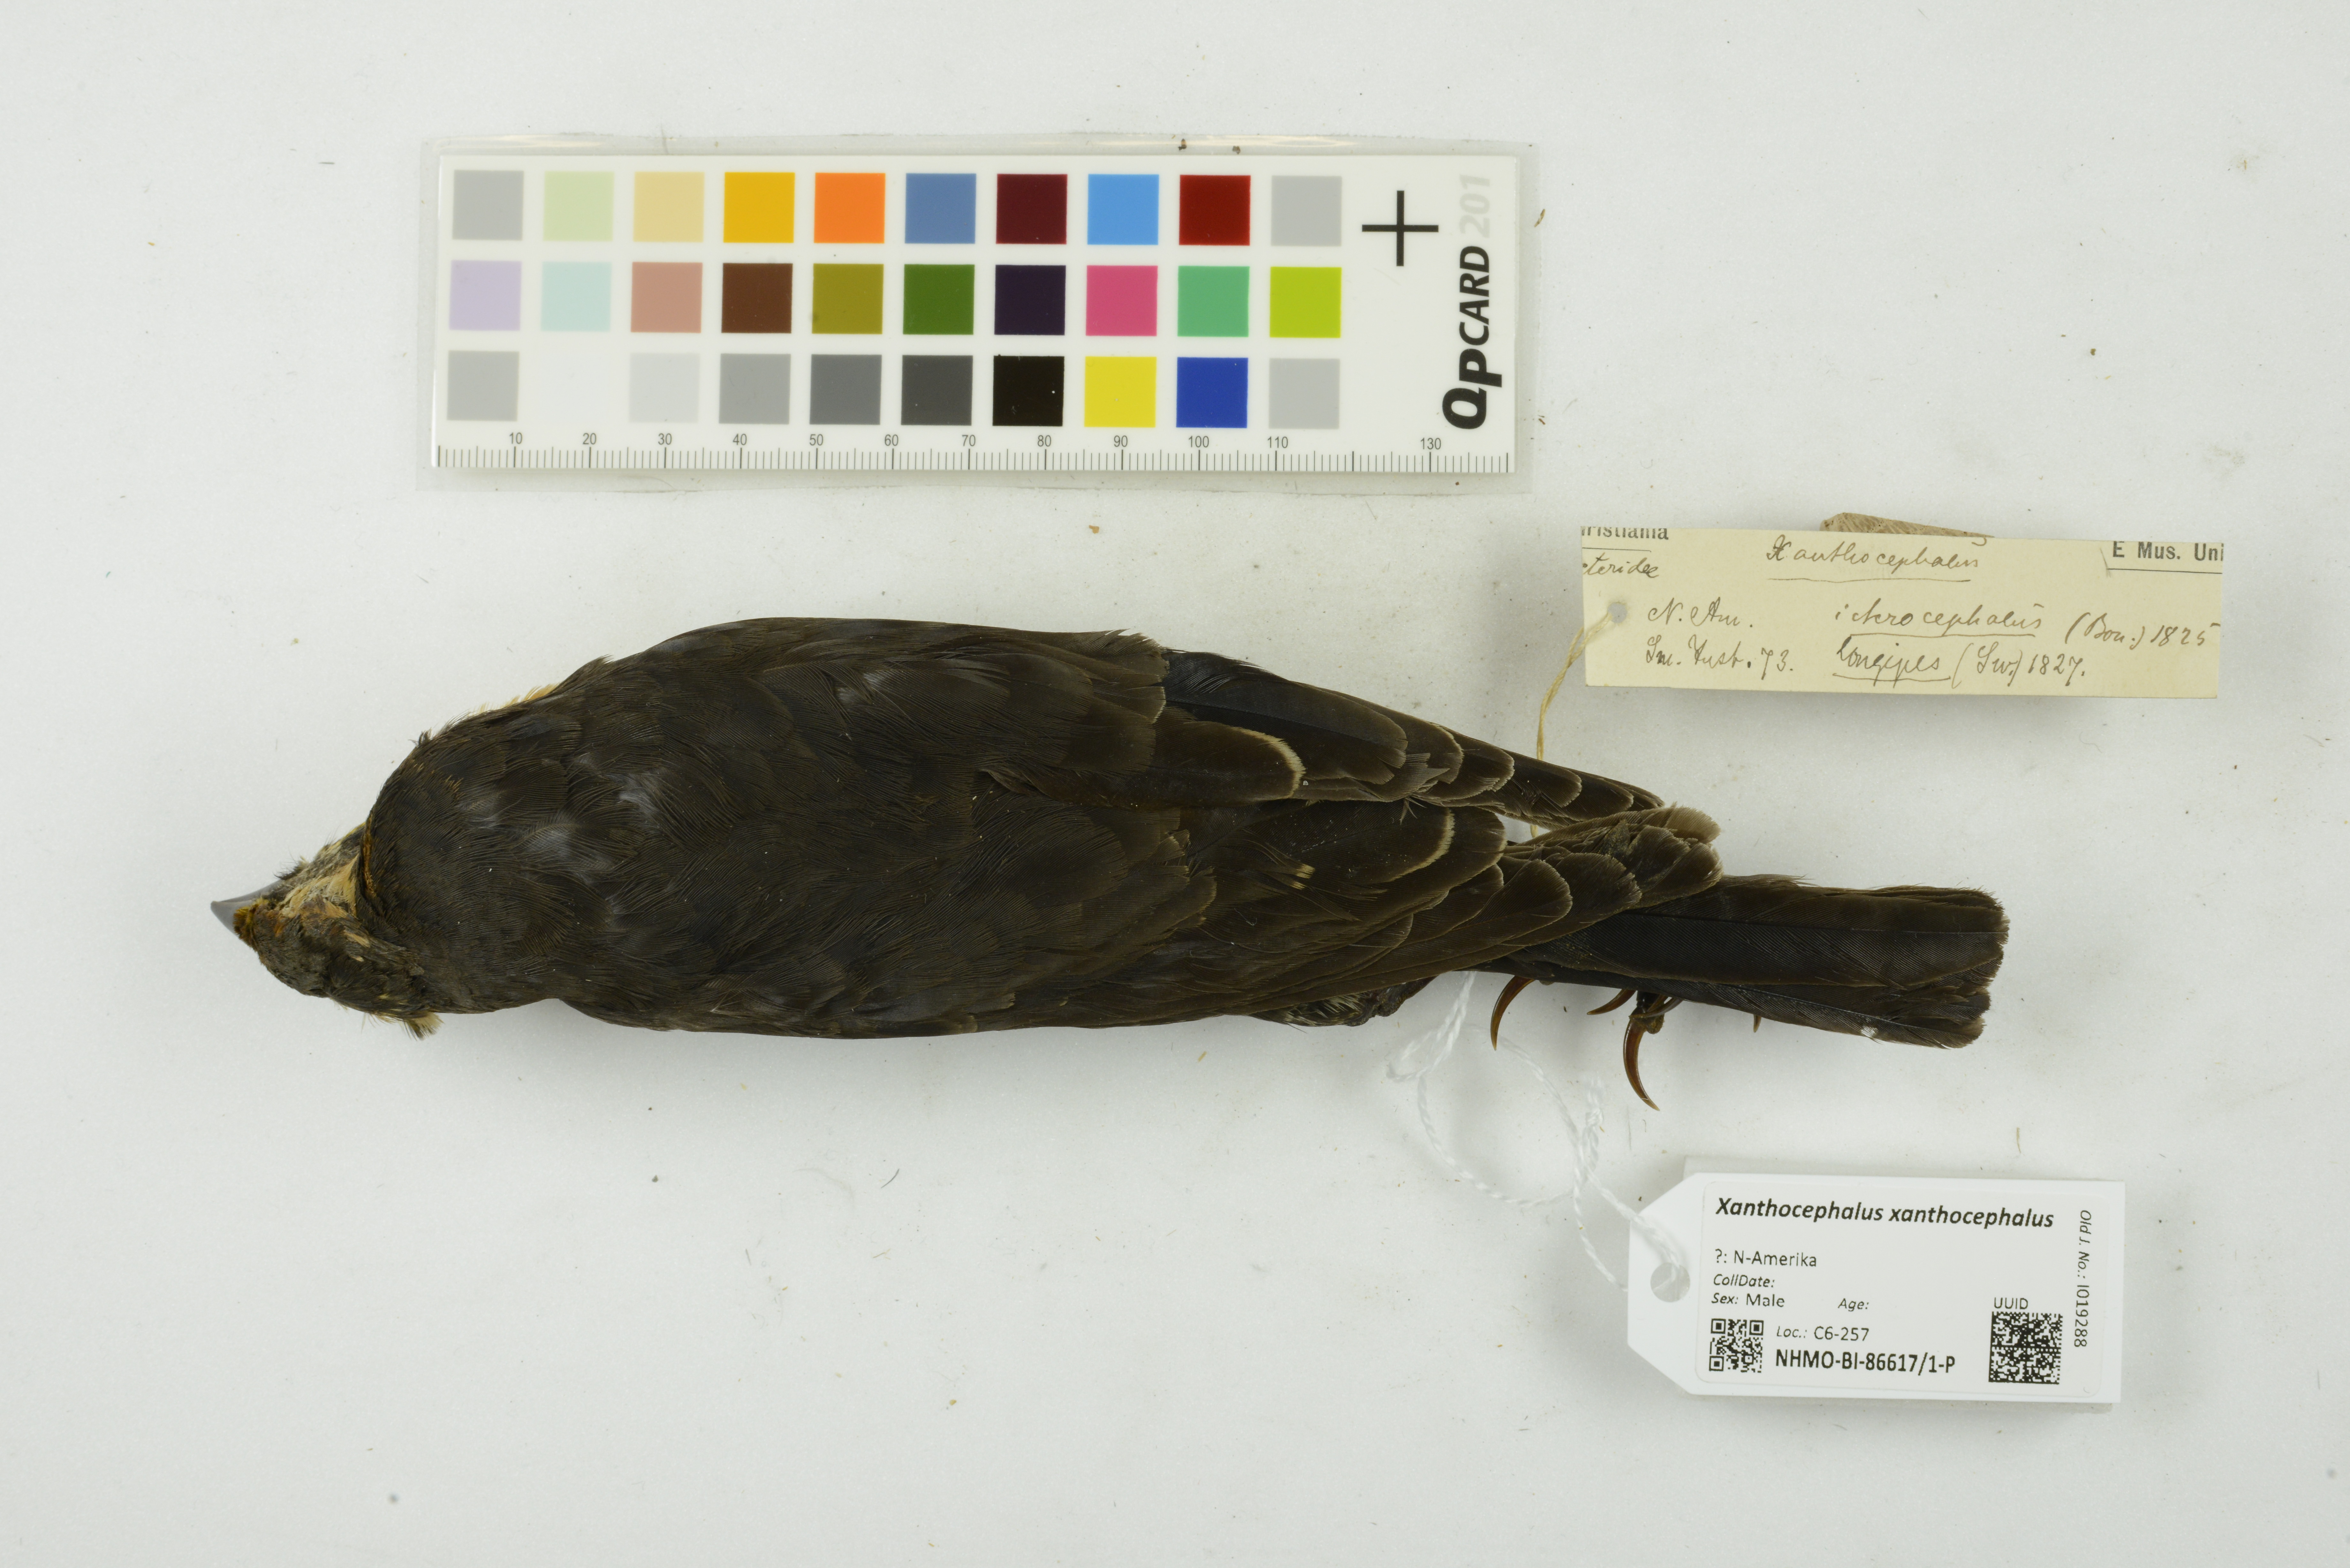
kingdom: Animalia
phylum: Chordata
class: Aves
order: Passeriformes
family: Icteridae
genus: Xanthocephalus
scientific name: Xanthocephalus xanthocephalus
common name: Yellow-headed blackbird
